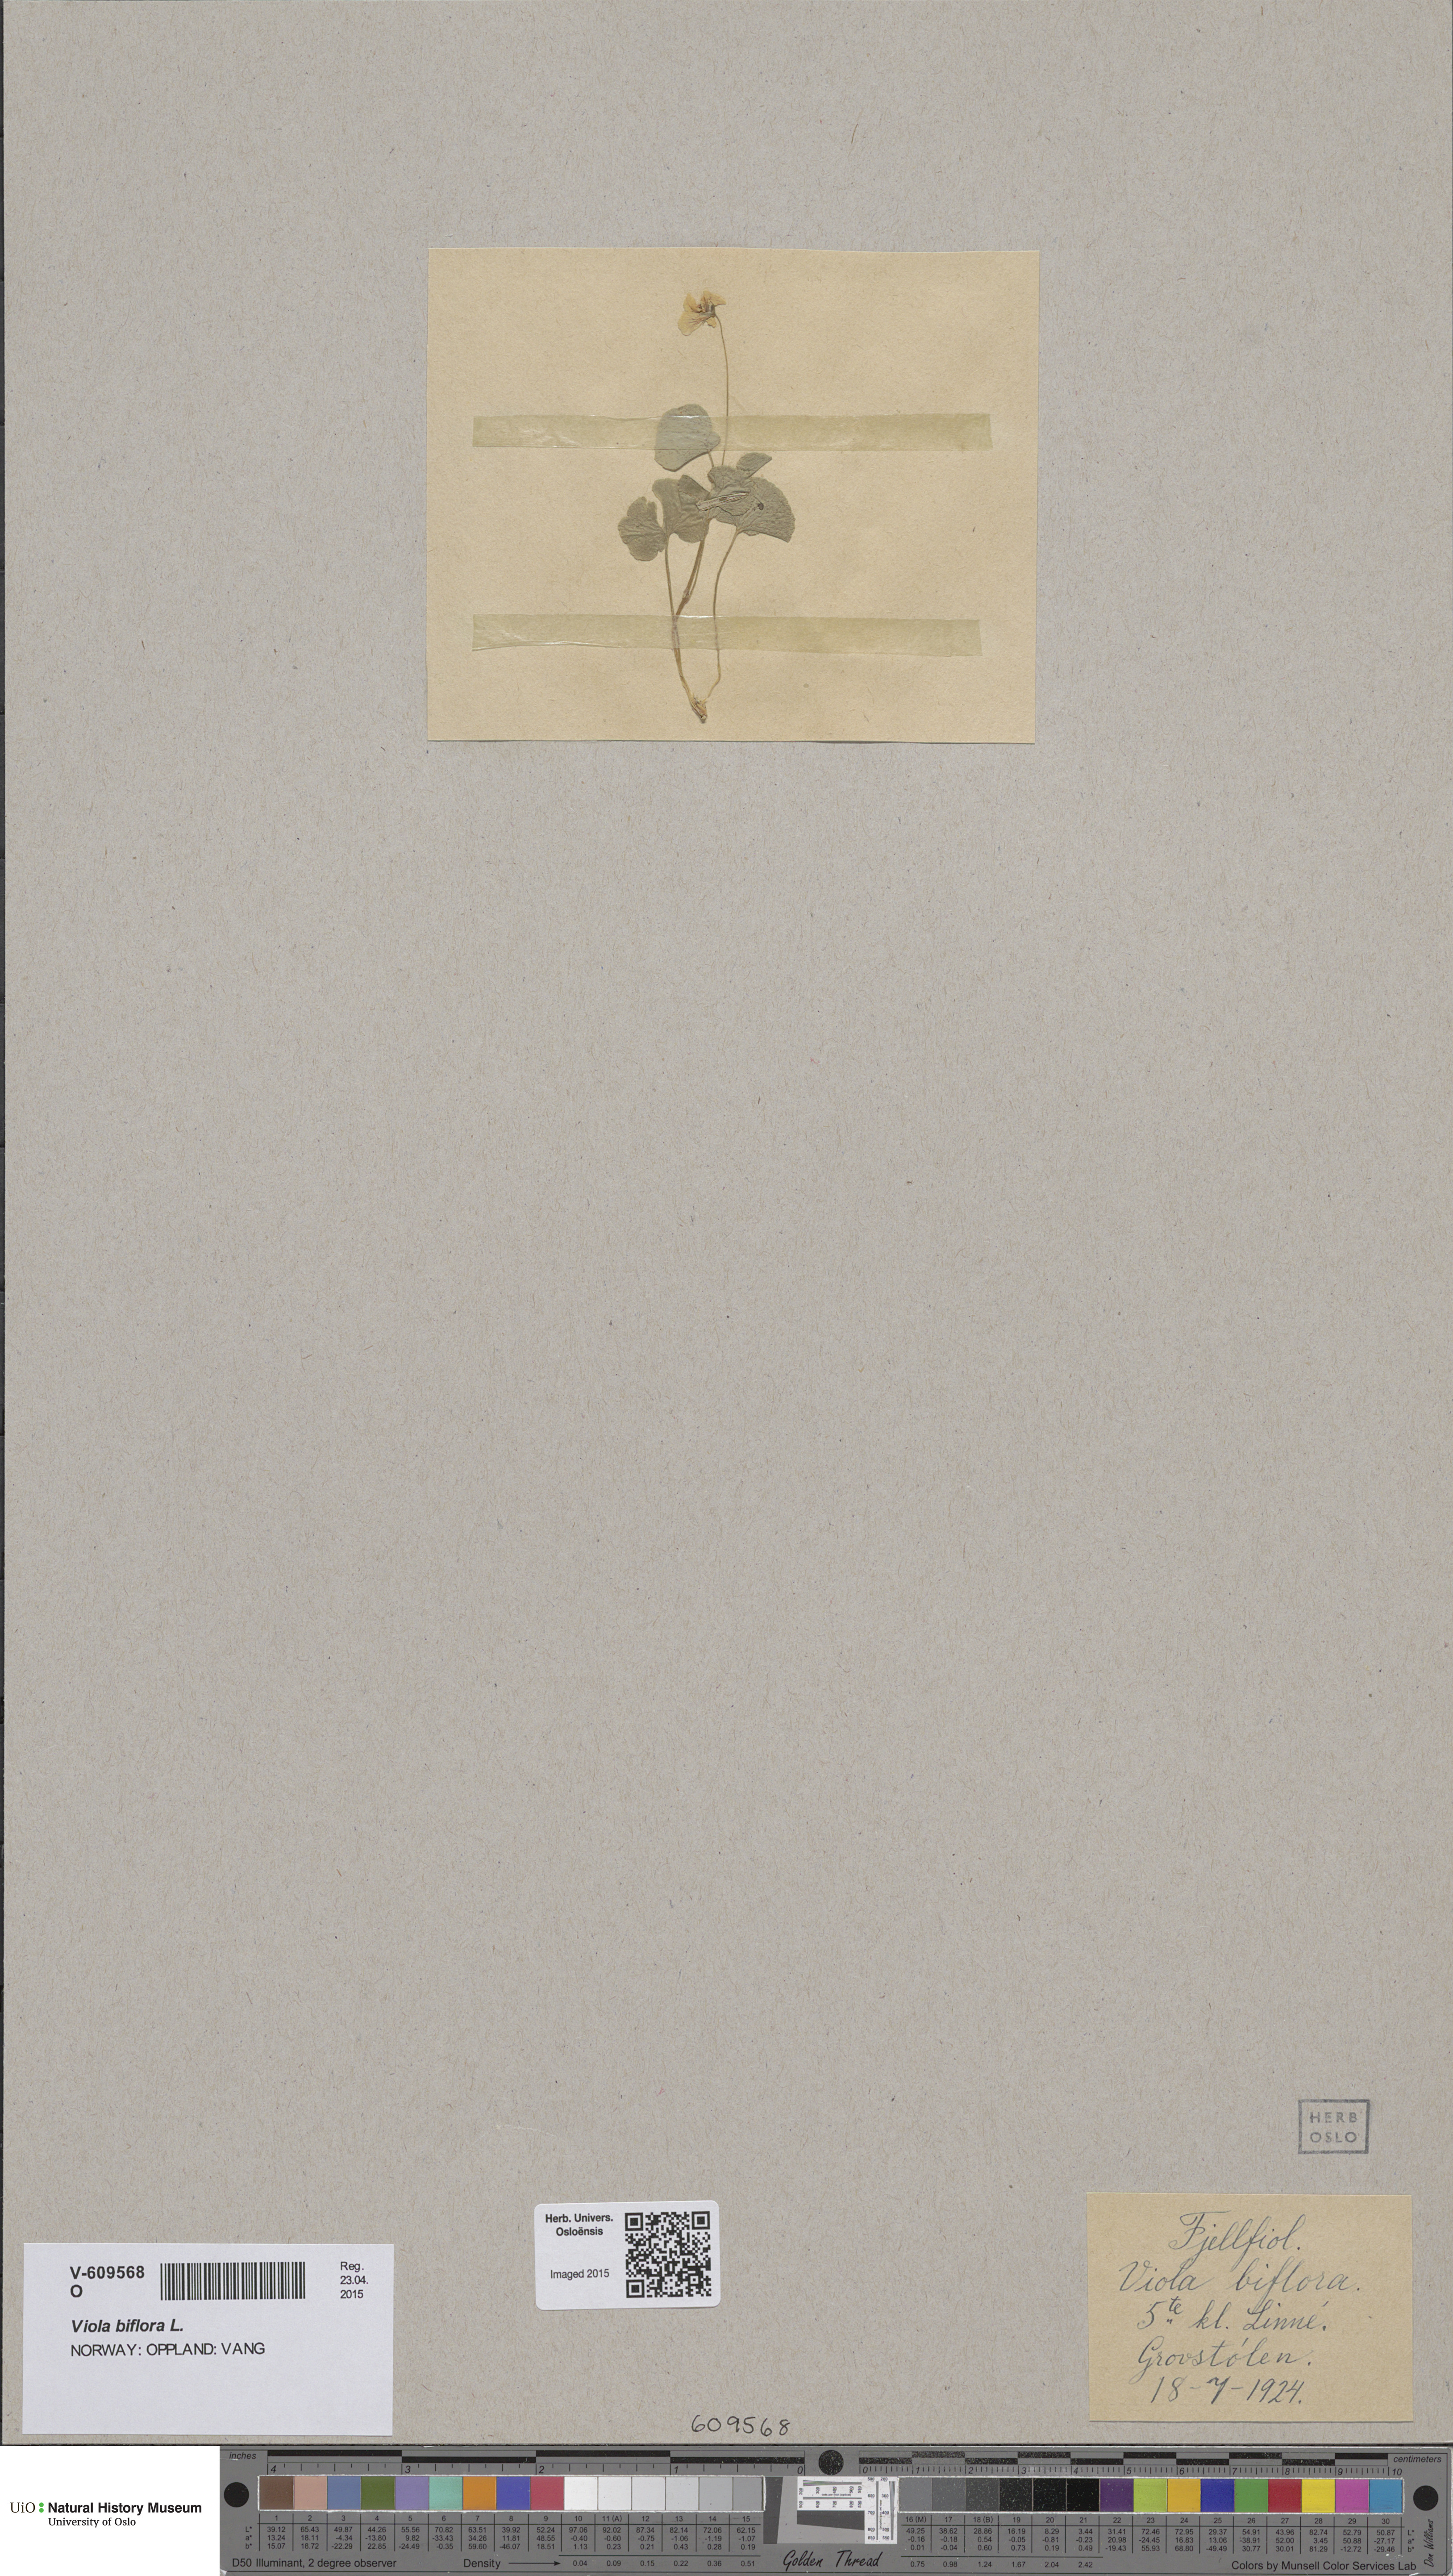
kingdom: Plantae
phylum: Tracheophyta
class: Magnoliopsida
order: Malpighiales
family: Violaceae
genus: Viola
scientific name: Viola biflora
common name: Alpine yellow violet
